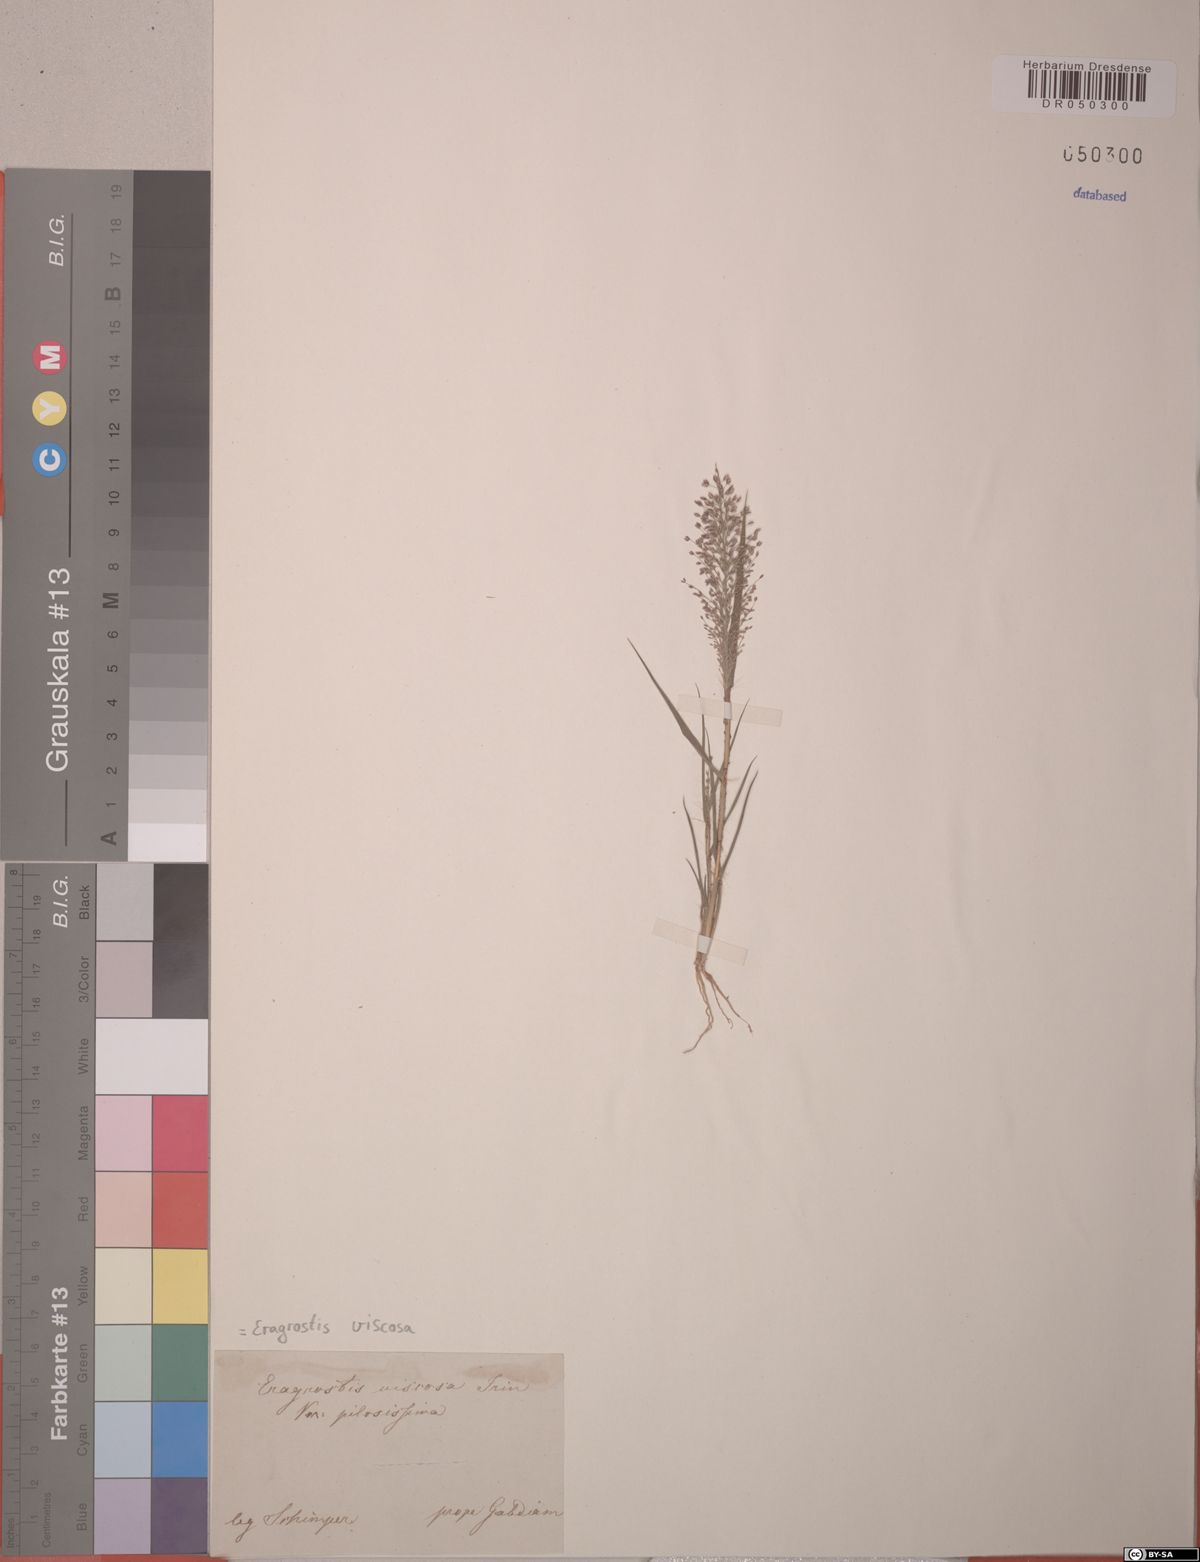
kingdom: Plantae
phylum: Tracheophyta
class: Liliopsida
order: Poales
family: Poaceae
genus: Eragrostis
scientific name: Eragrostis viscosa
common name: Sticky love grass
